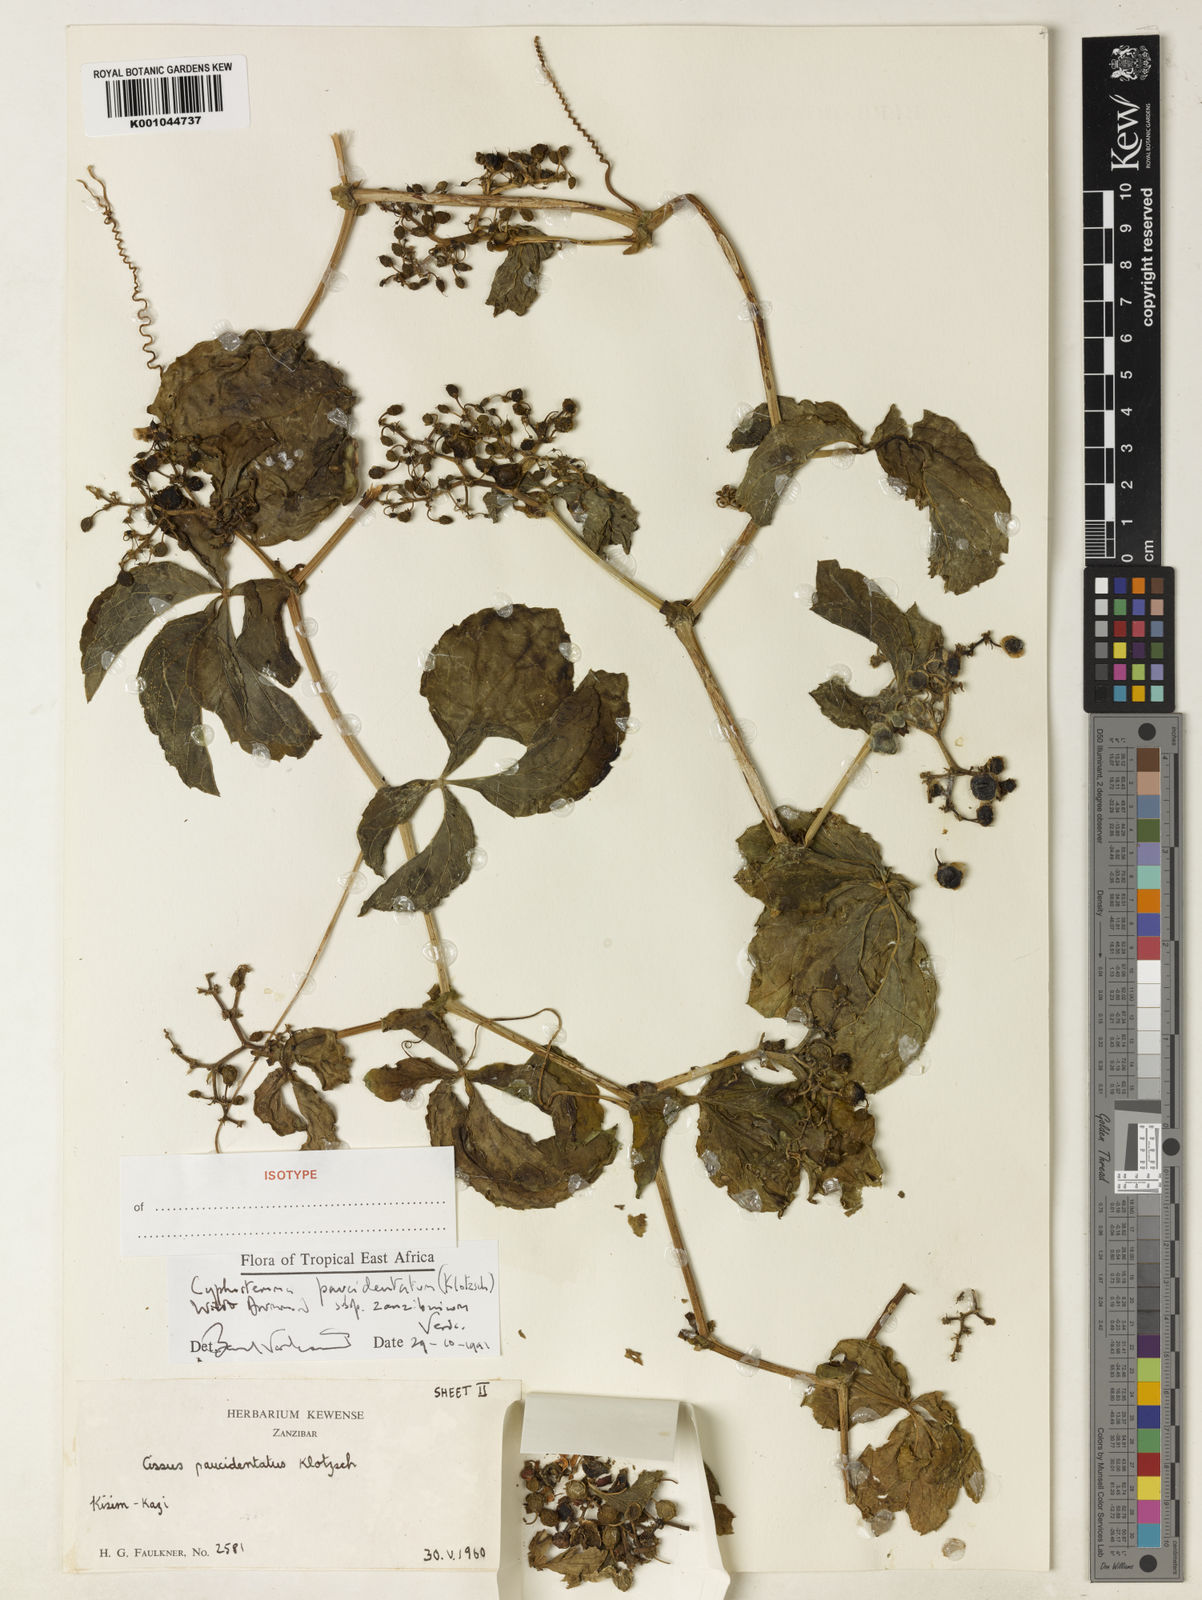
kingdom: Plantae
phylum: Tracheophyta
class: Magnoliopsida
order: Vitales
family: Vitaceae
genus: Cyphostemma
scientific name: Cyphostemma
